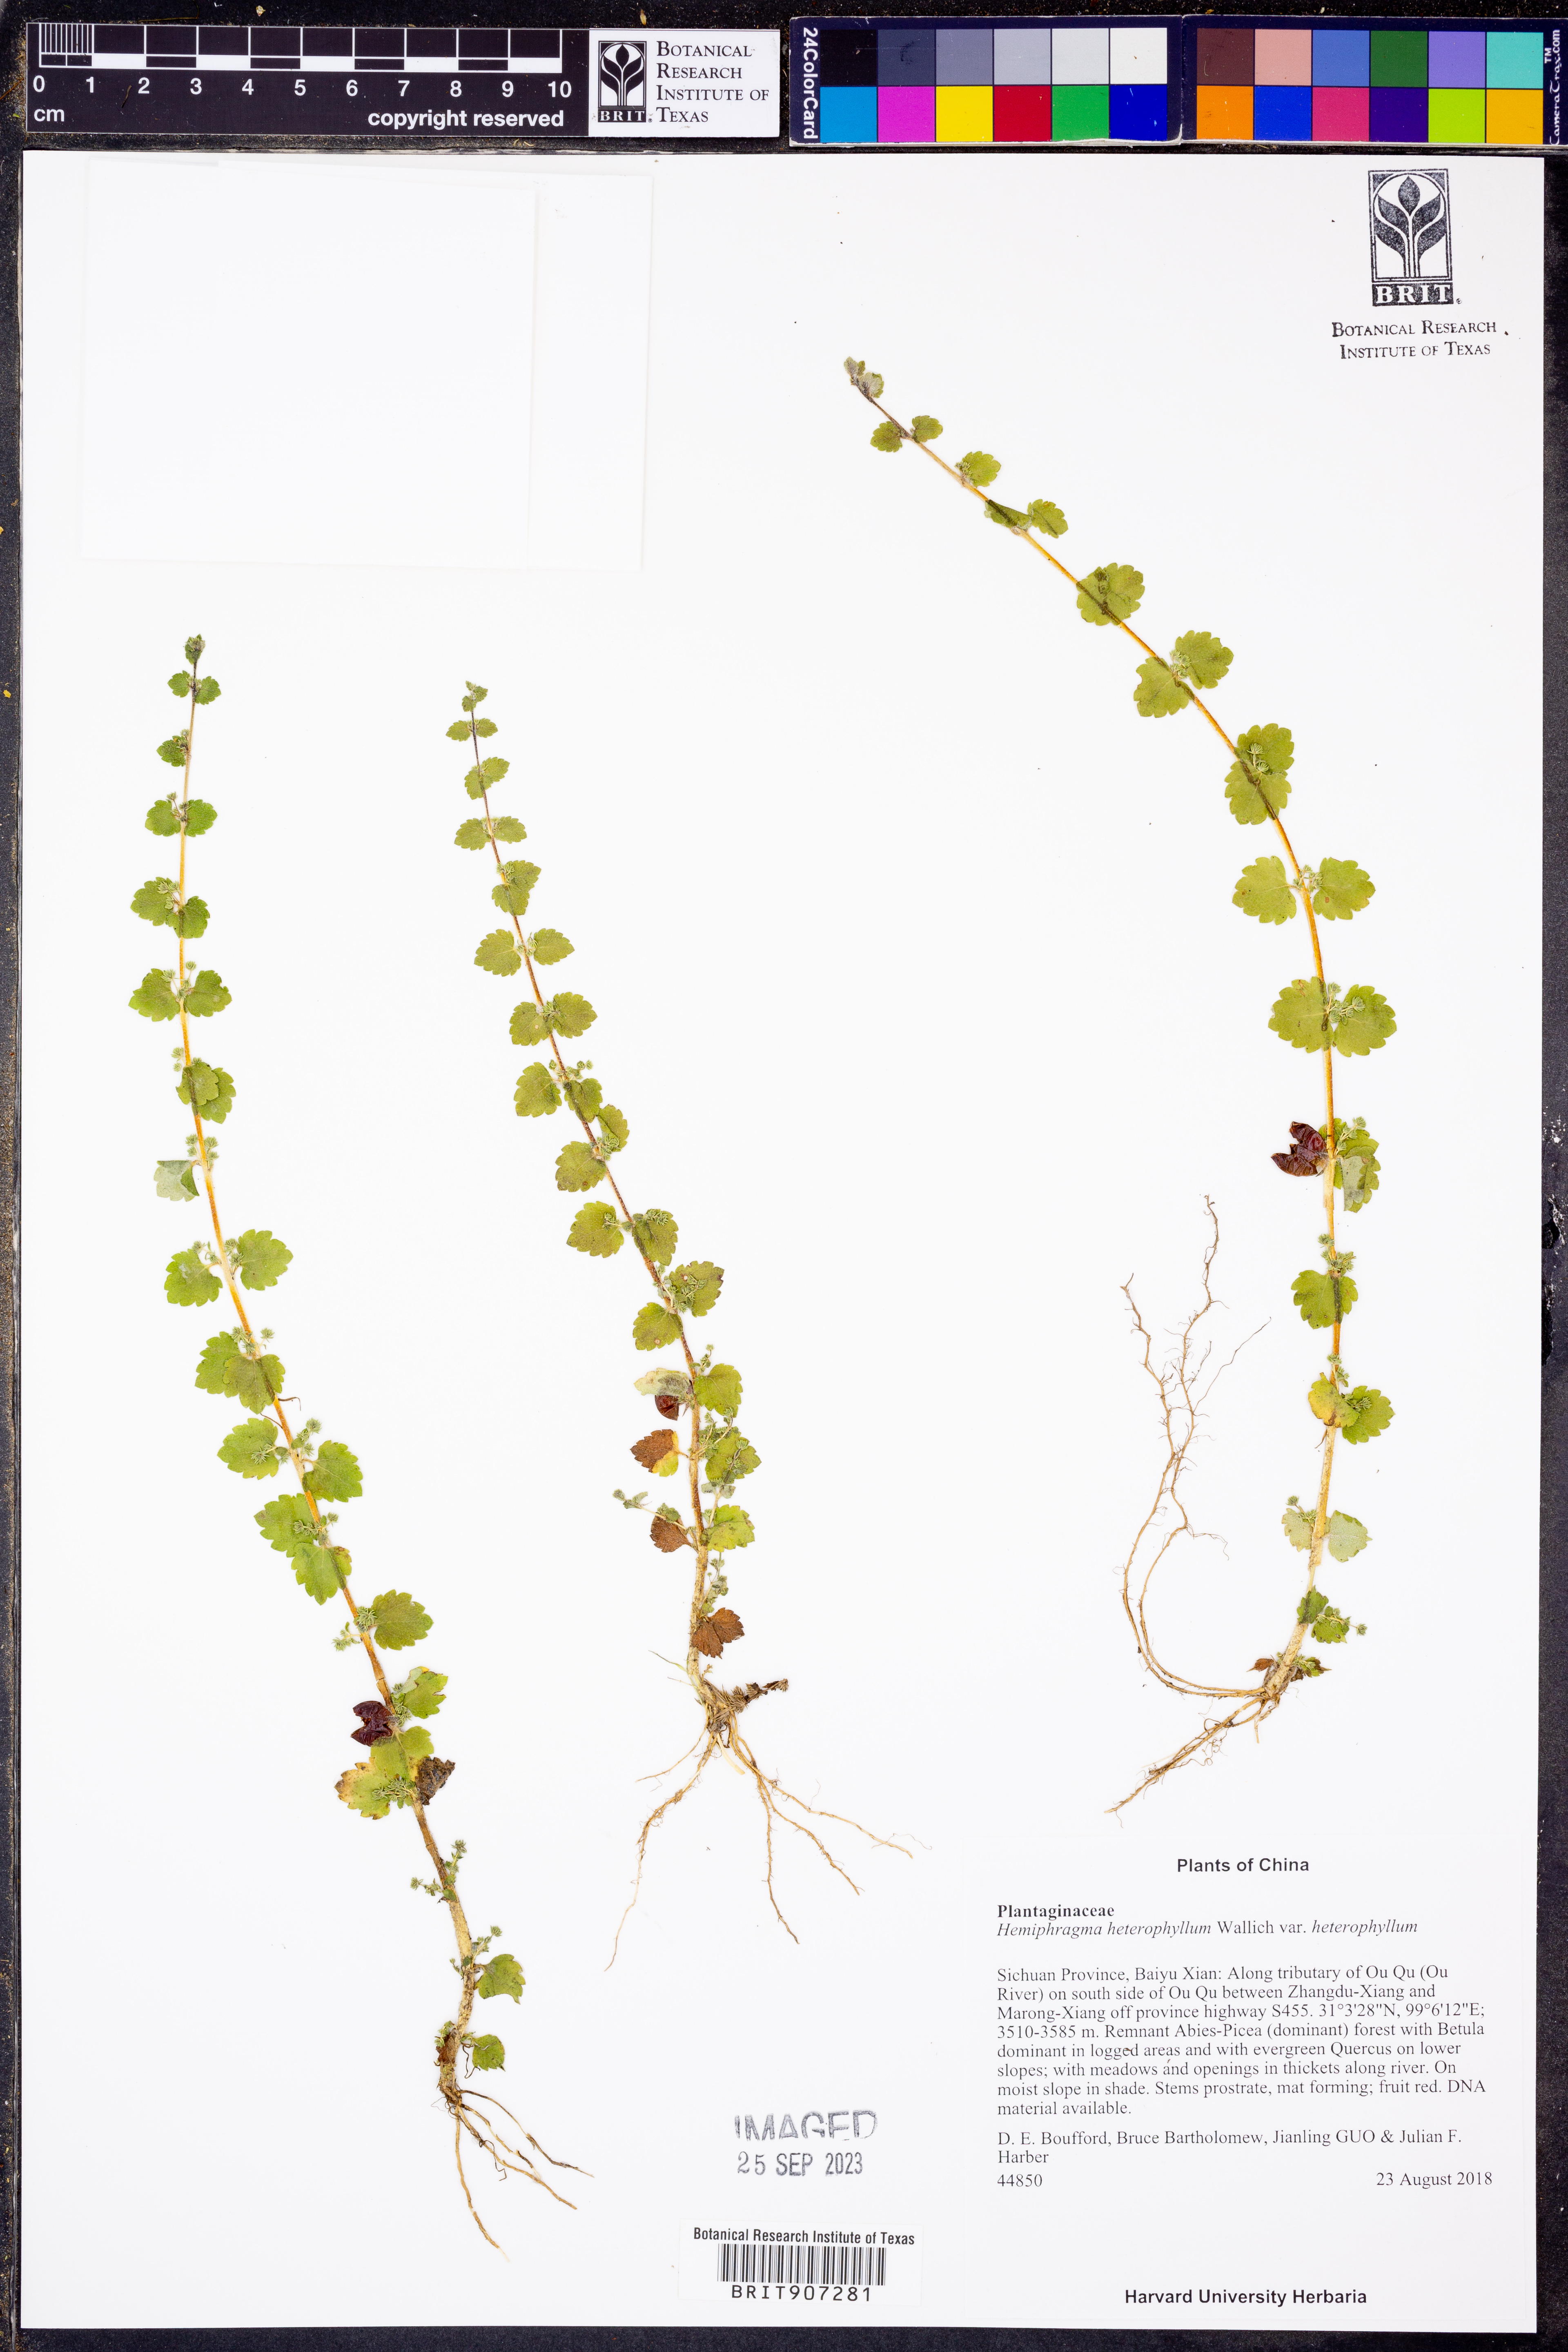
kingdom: Plantae
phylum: Tracheophyta
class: Magnoliopsida
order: Lamiales
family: Plantaginaceae
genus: Hemiphragma
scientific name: Hemiphragma heterophyllum
